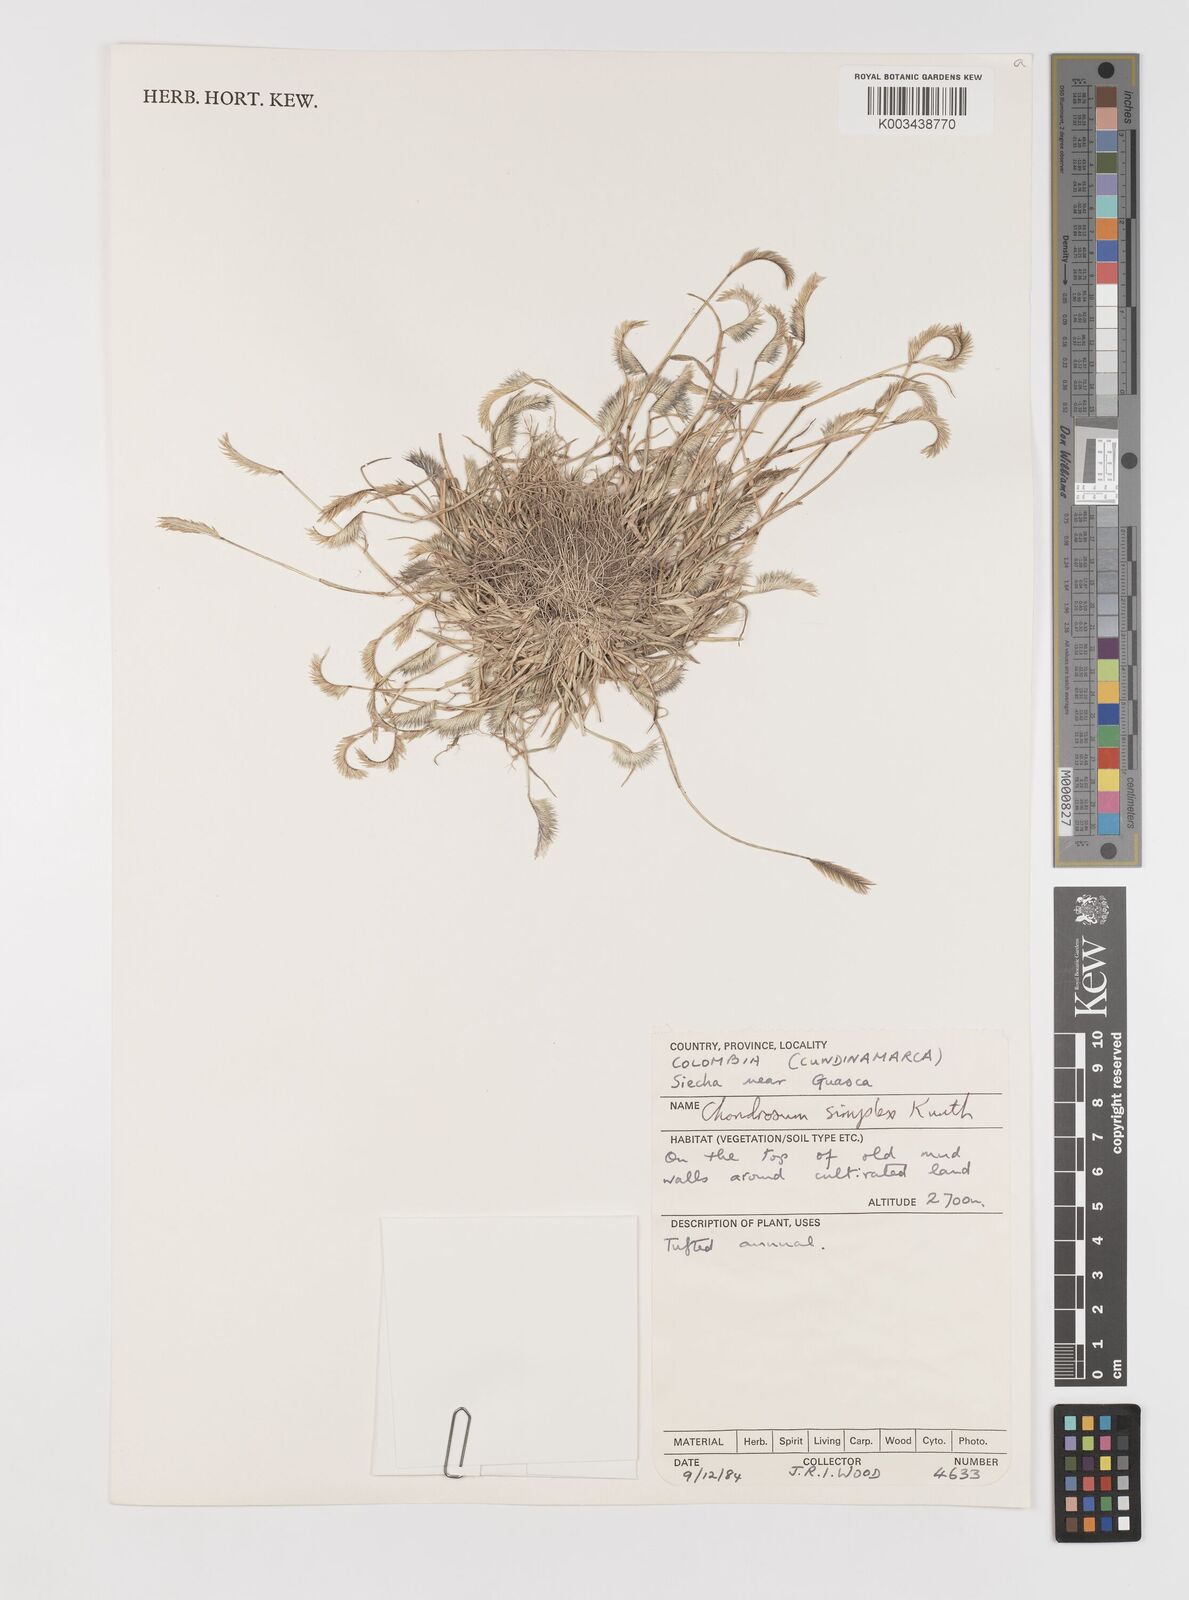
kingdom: Plantae
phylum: Tracheophyta
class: Liliopsida
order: Poales
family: Poaceae
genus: Bouteloua
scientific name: Bouteloua simplex
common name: Mat grama
